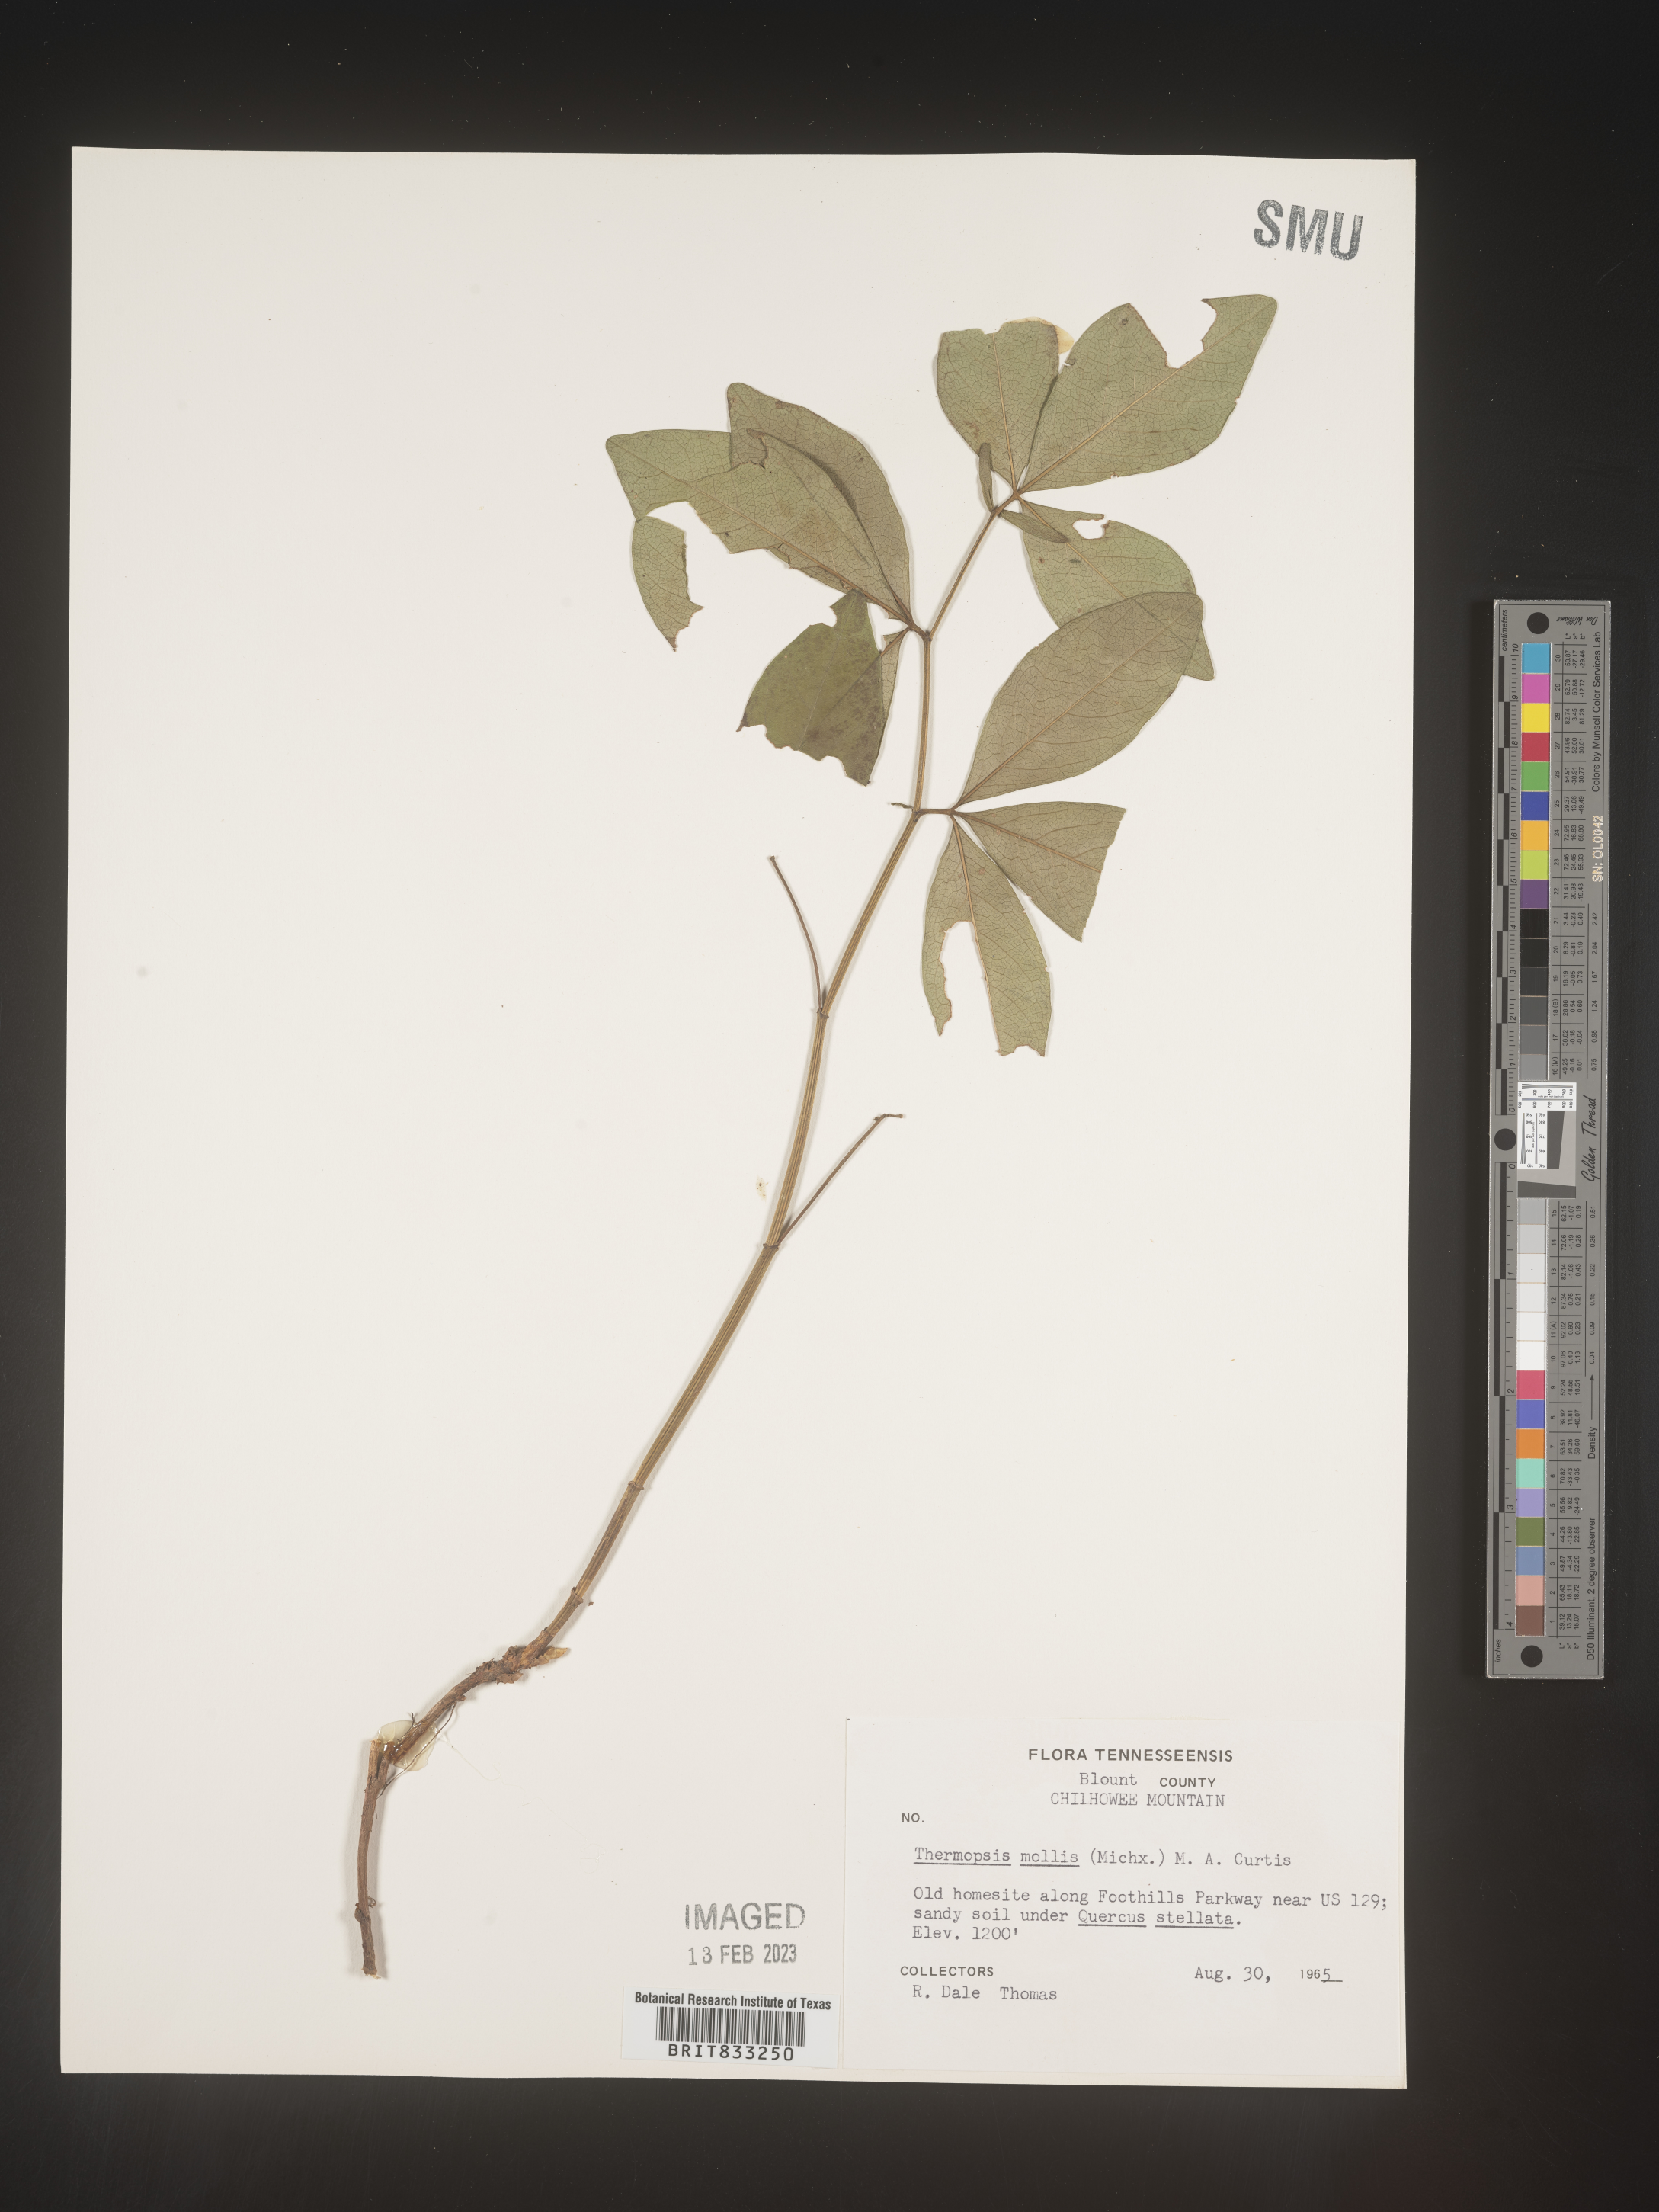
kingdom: Plantae
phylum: Tracheophyta
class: Magnoliopsida
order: Fabales
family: Fabaceae
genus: Thermopsis
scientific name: Thermopsis mollis
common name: Allegheny mountain goldenbanner
